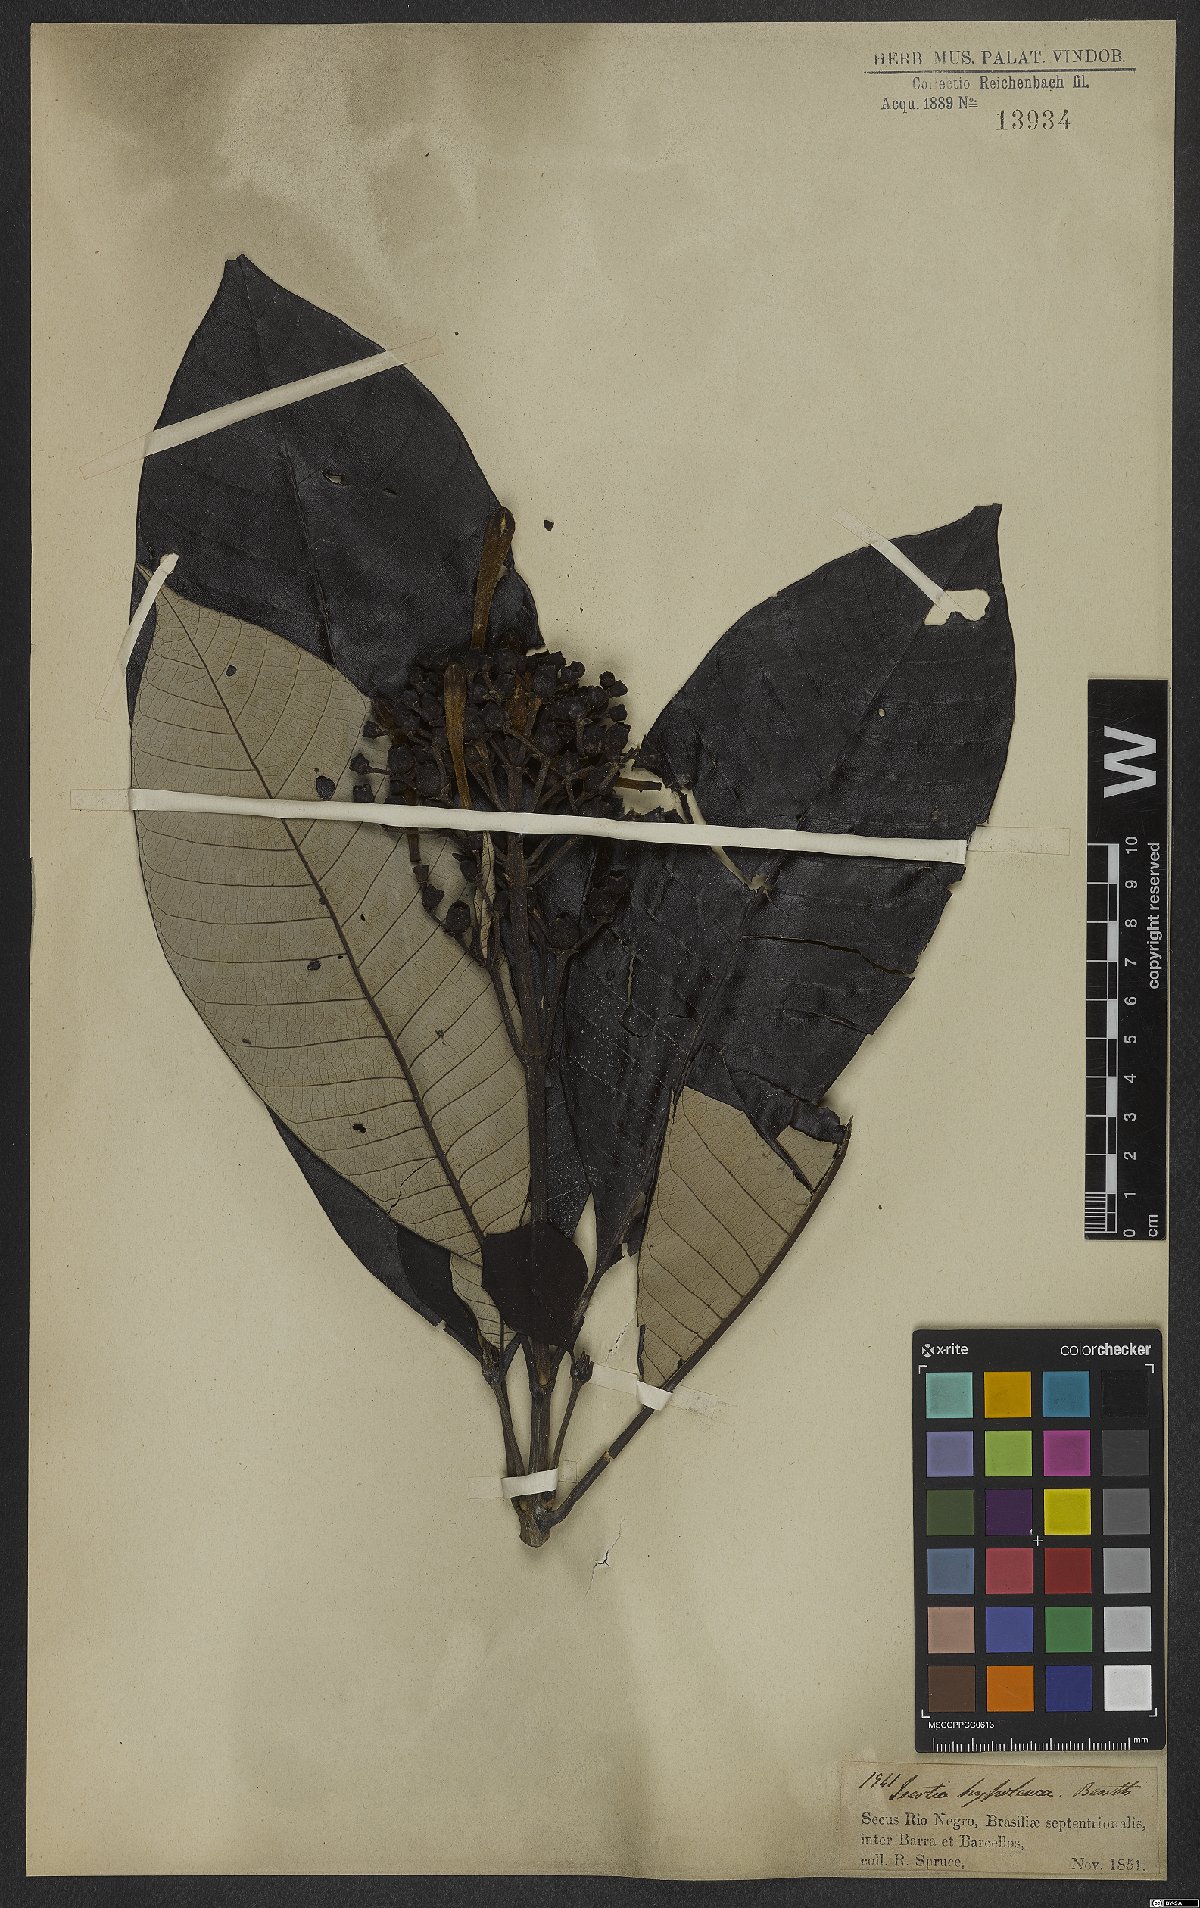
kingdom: Plantae
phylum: Tracheophyta
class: Magnoliopsida
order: Gentianales
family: Rubiaceae
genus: Isertia
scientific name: Isertia hypoleuca
